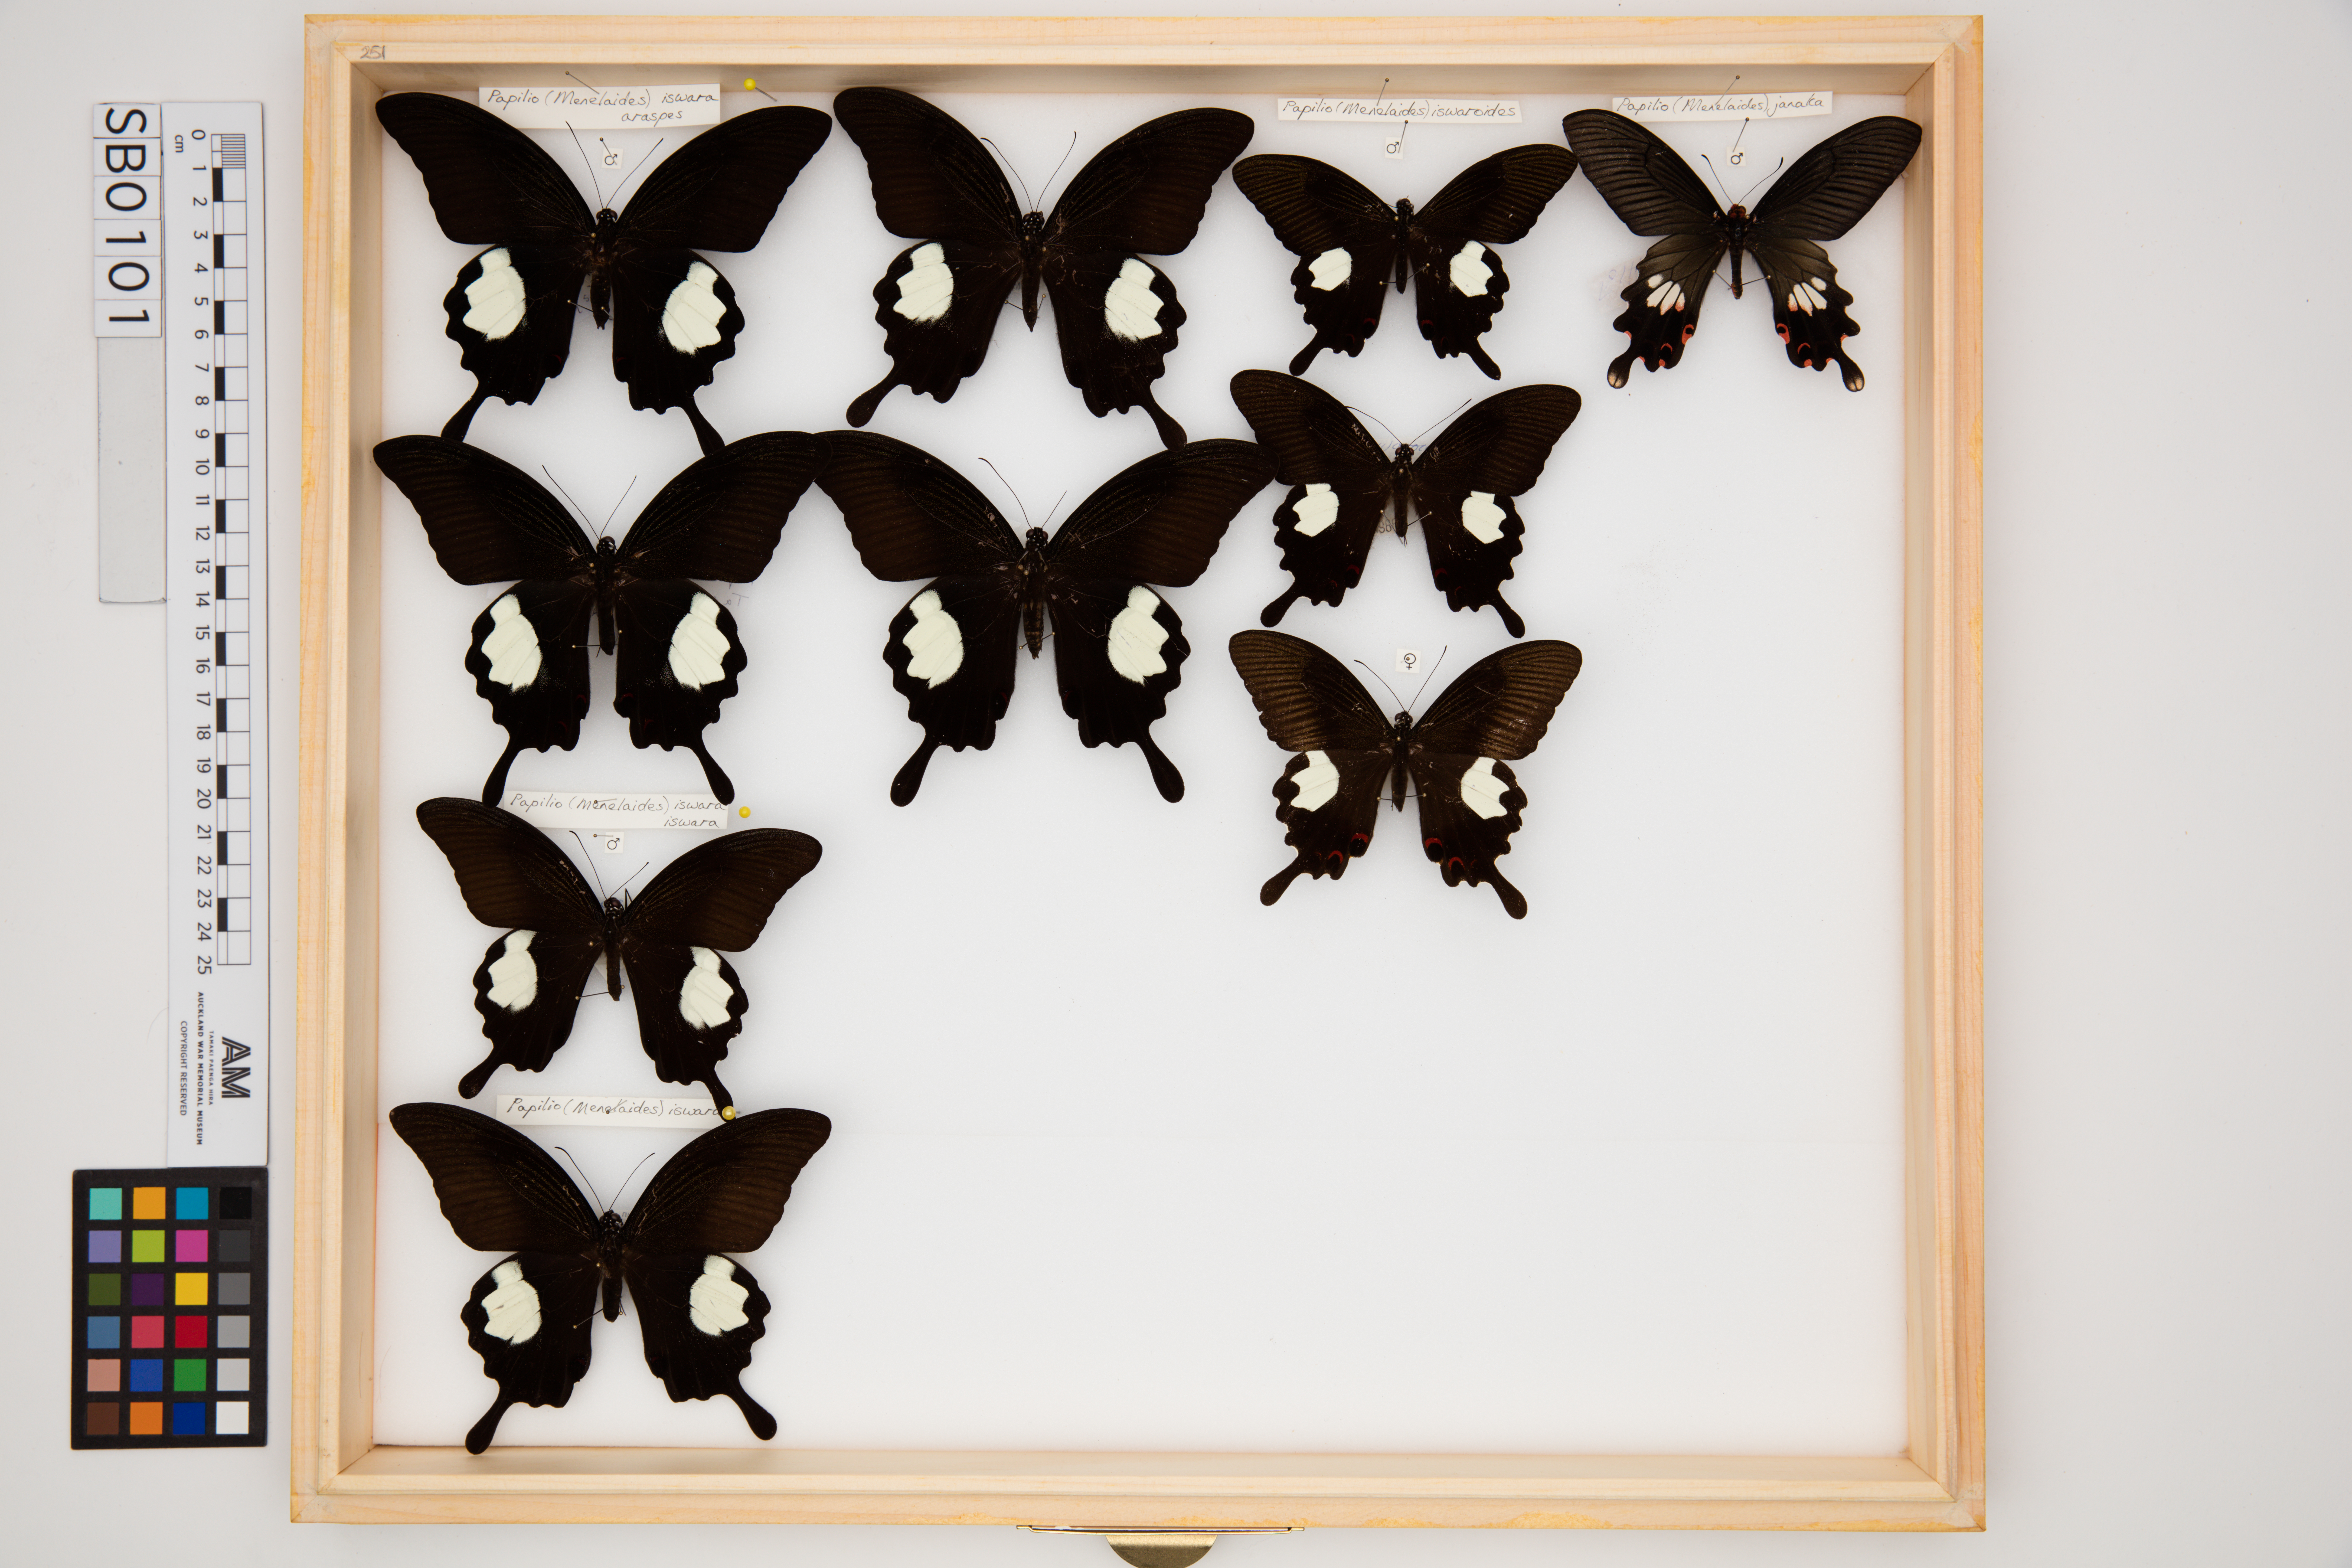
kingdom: Animalia
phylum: Arthropoda
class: Insecta
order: Lepidoptera
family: Papilionidae
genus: Papilio
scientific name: Papilio iswara
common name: Great helen swallowtail
